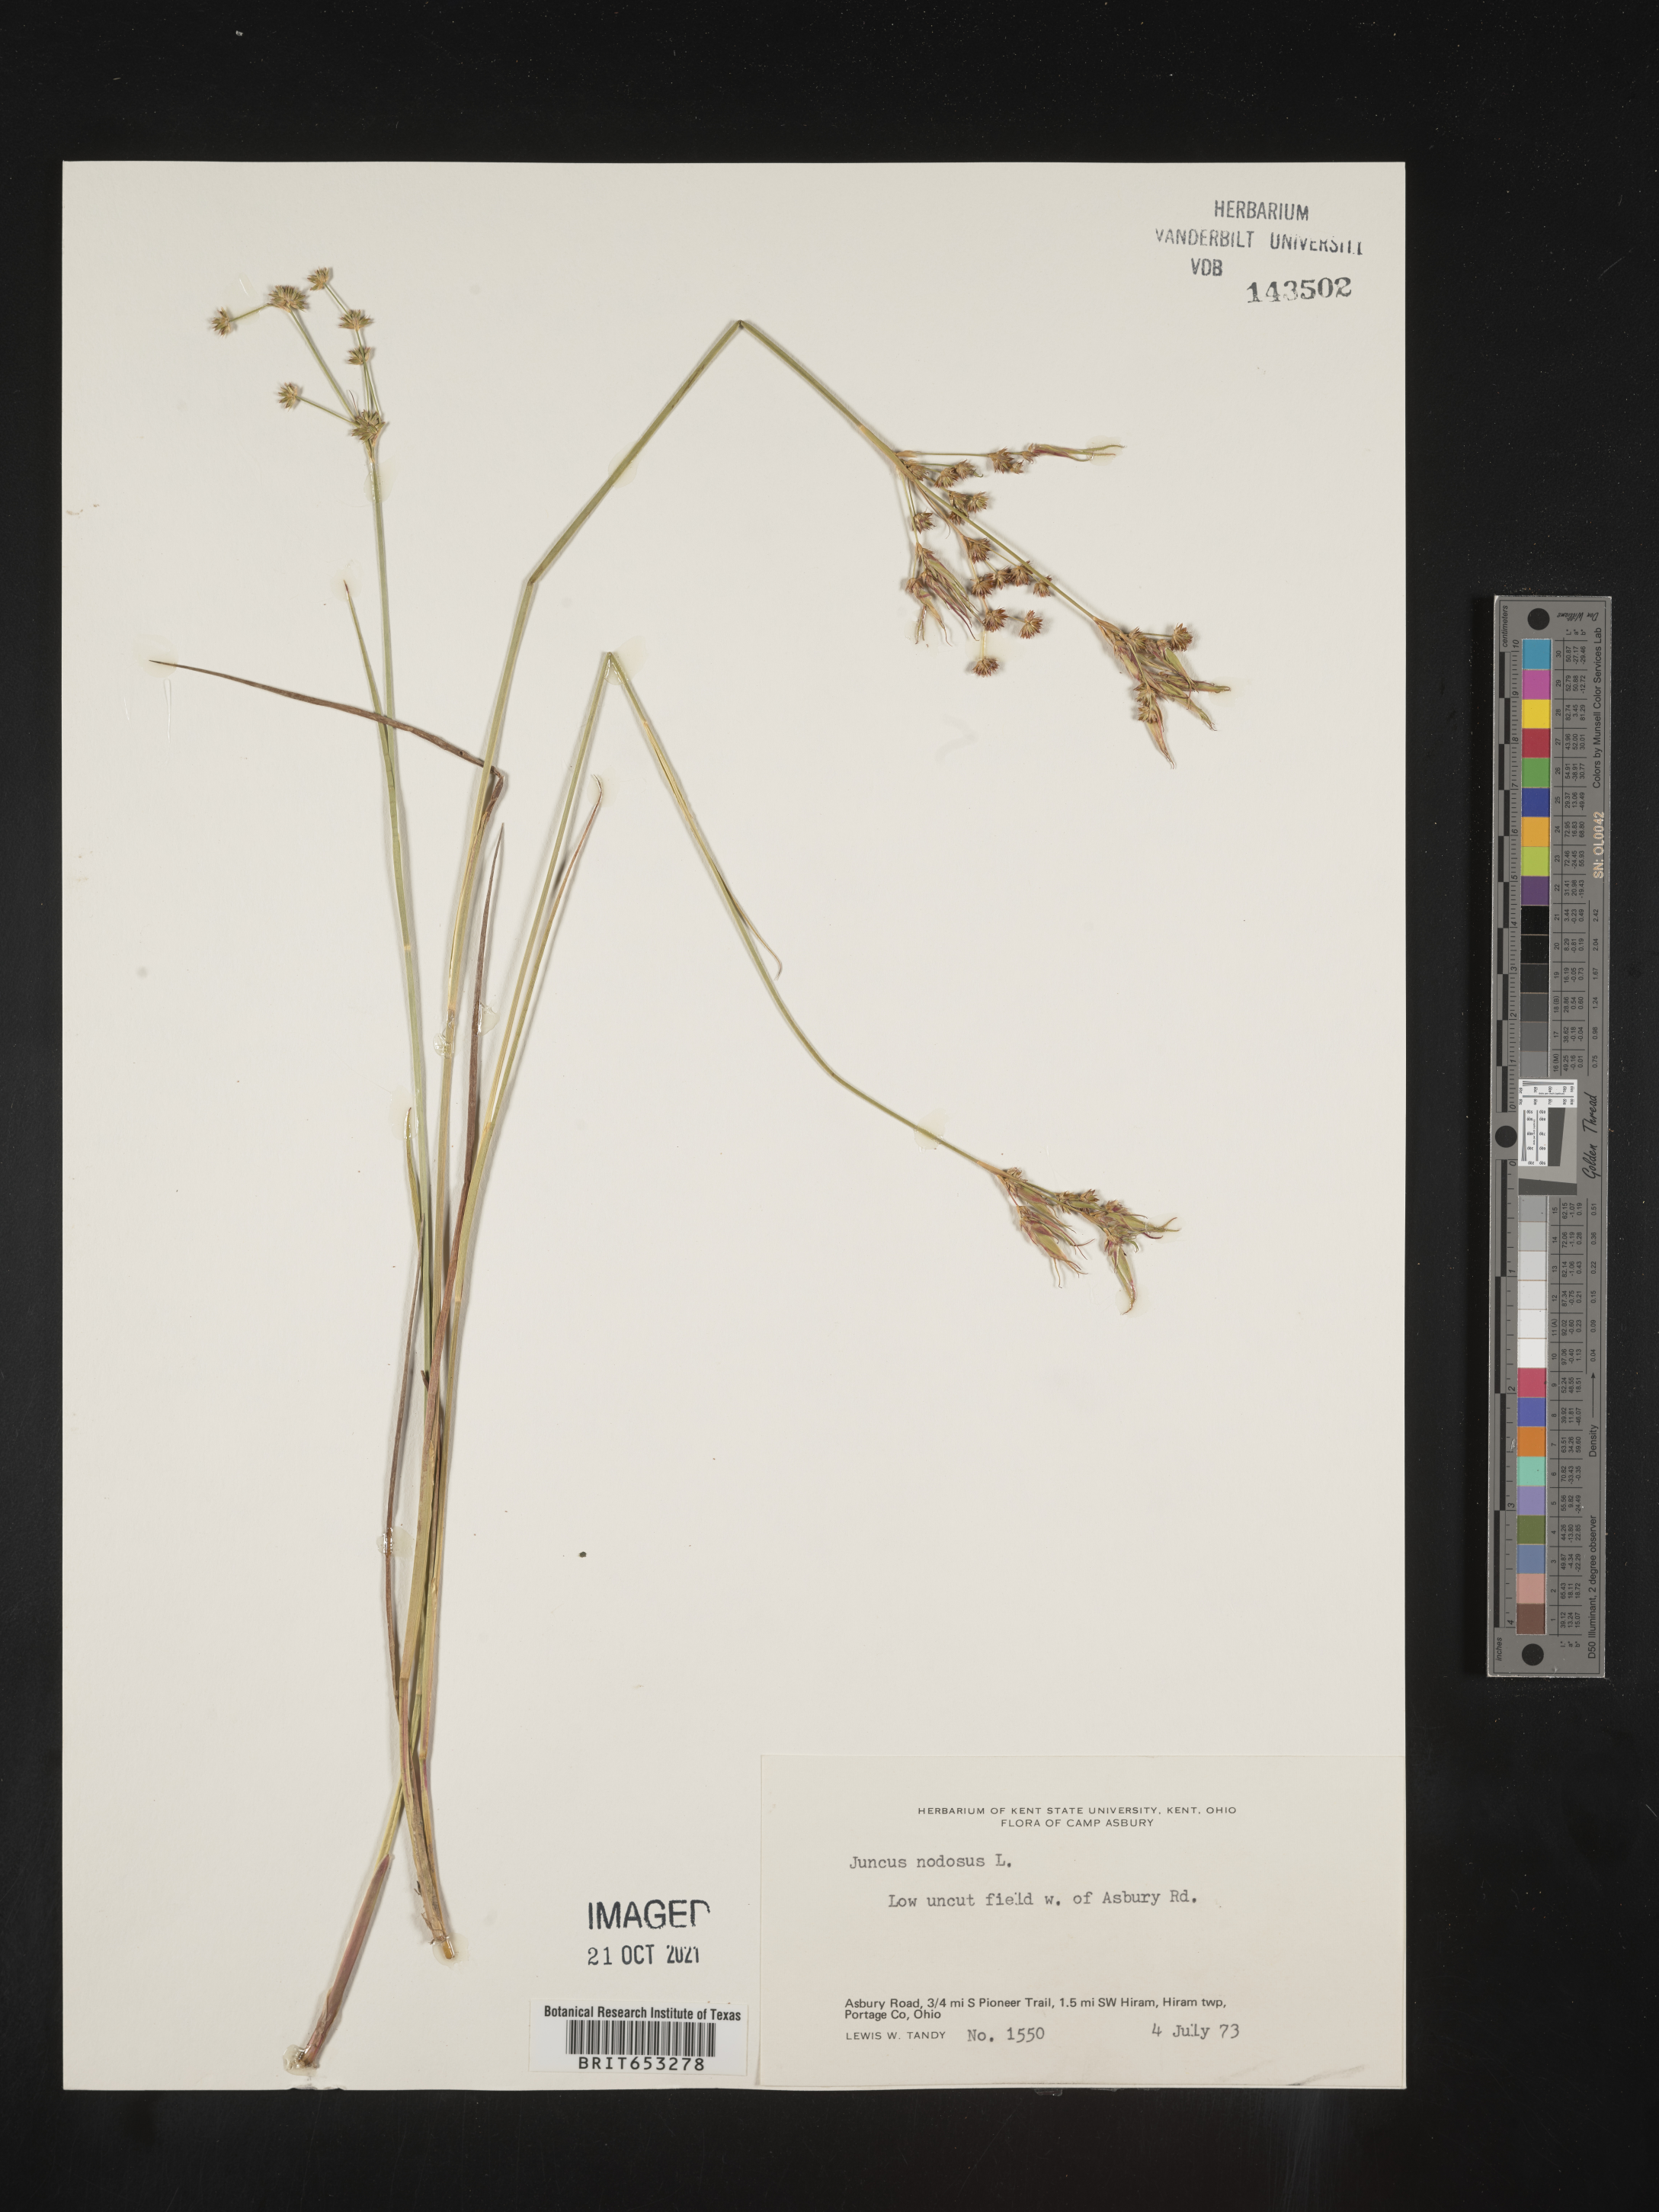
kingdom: Plantae
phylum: Tracheophyta
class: Liliopsida
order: Poales
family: Juncaceae
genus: Juncus
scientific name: Juncus nodosus
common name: Knotted rush
